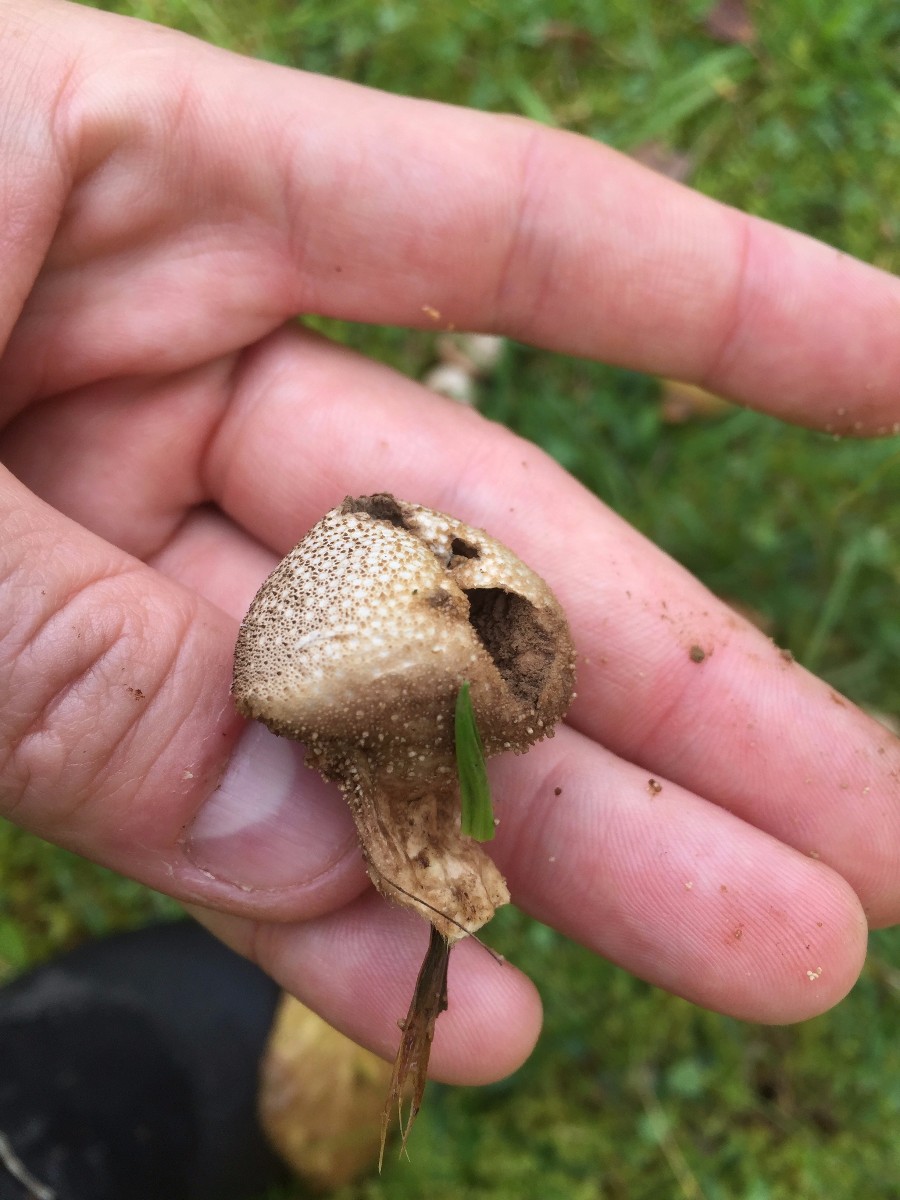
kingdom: Fungi
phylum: Basidiomycota
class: Agaricomycetes
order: Agaricales
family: Lycoperdaceae
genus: Lycoperdon
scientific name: Lycoperdon perlatum
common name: krystal-støvbold
